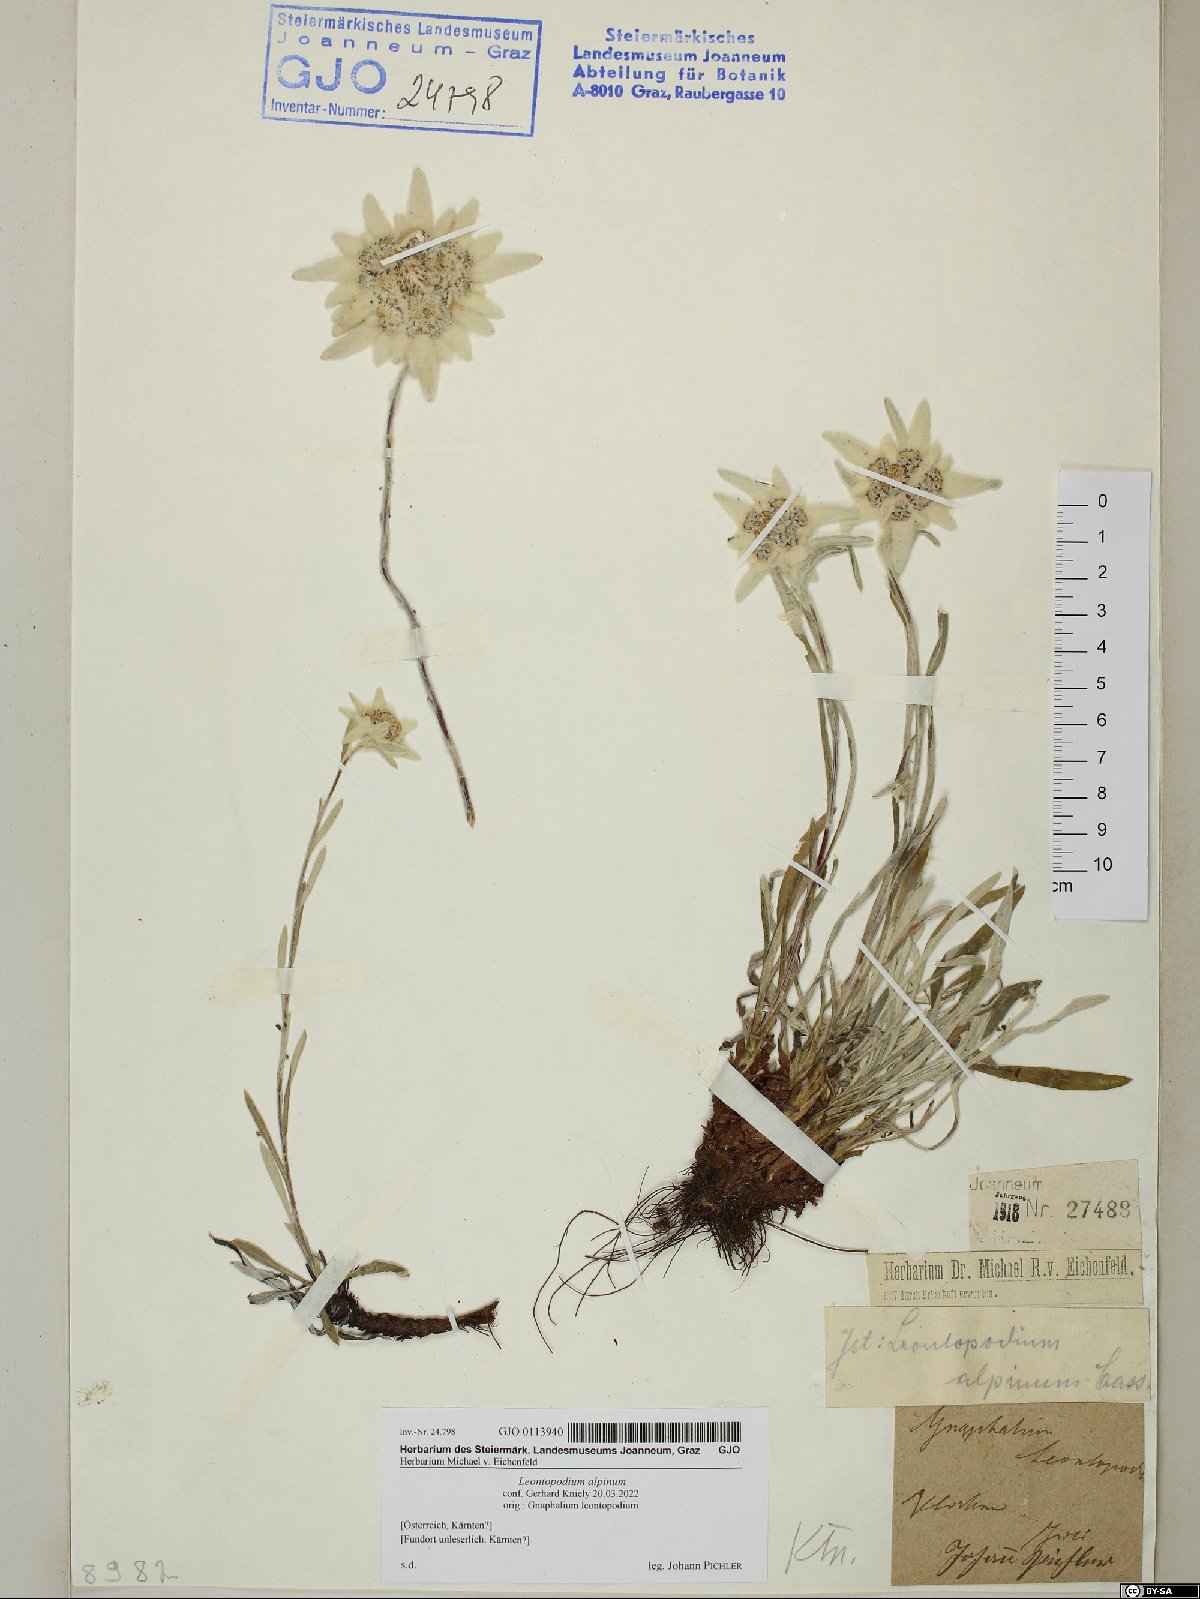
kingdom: Plantae
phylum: Tracheophyta
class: Magnoliopsida
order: Asterales
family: Asteraceae
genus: Leontopodium
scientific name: Leontopodium nivale
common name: Edelweiss
